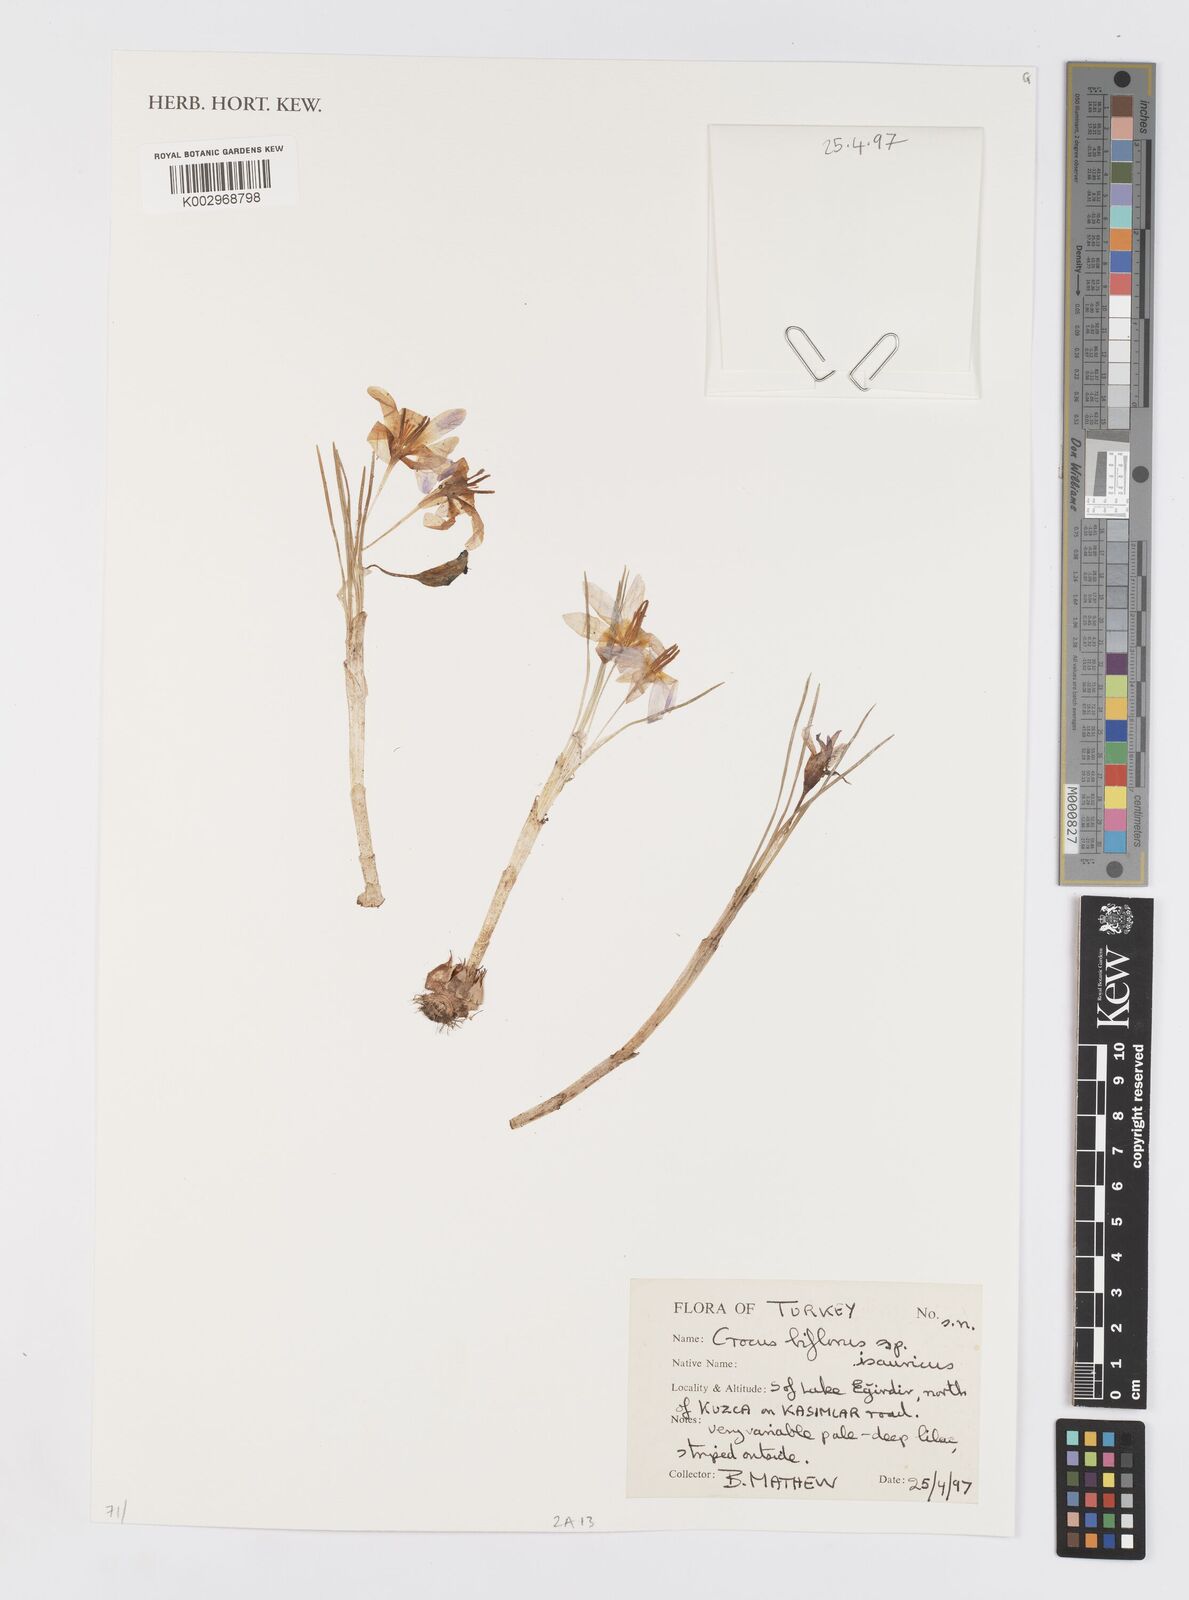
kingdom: Plantae
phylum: Tracheophyta
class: Liliopsida
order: Asparagales
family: Iridaceae
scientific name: Iridaceae
